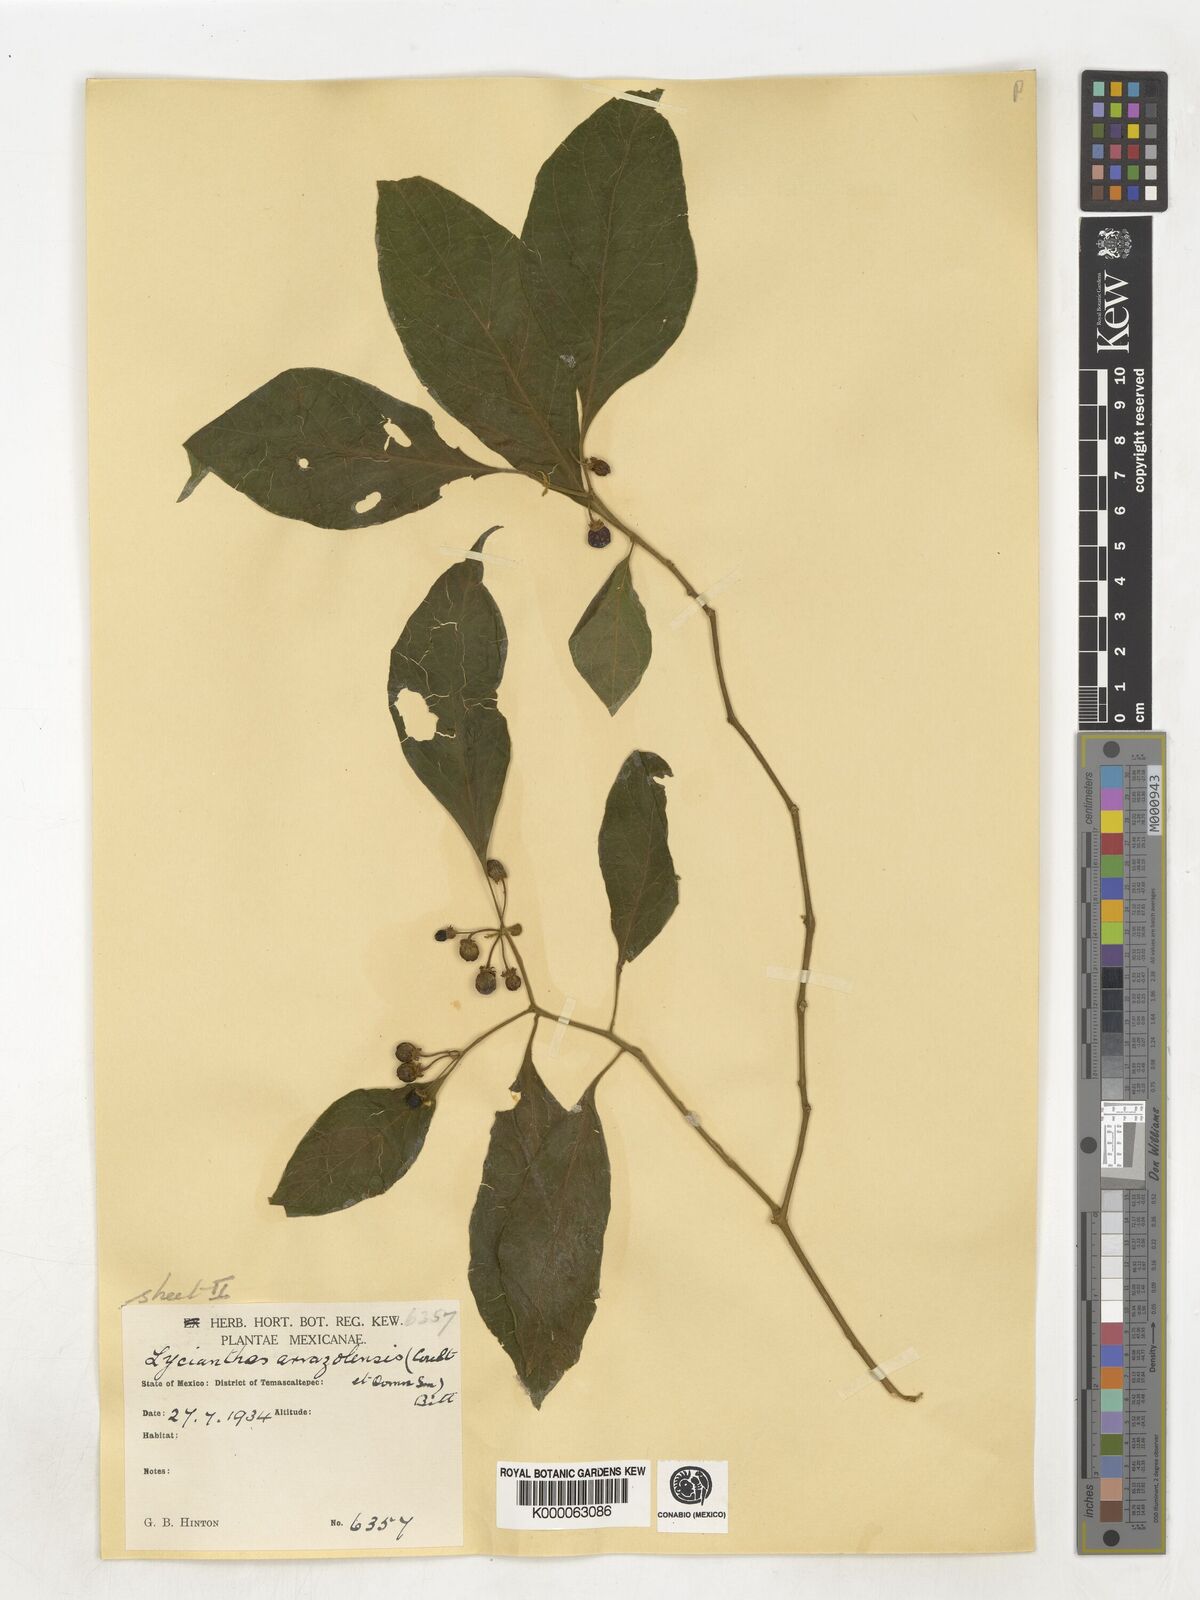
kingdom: Plantae
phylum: Tracheophyta
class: Magnoliopsida
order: Solanales
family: Solanaceae
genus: Lycianthes
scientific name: Lycianthes
